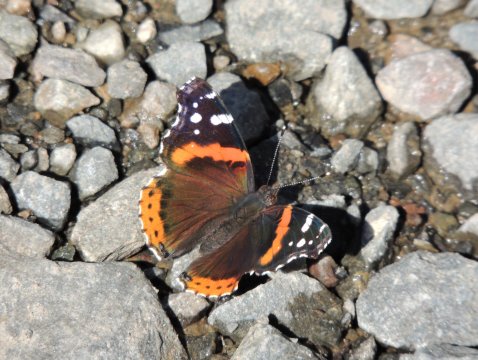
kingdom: Animalia
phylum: Arthropoda
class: Insecta
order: Lepidoptera
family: Nymphalidae
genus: Vanessa
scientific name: Vanessa atalanta
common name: Red Admiral
